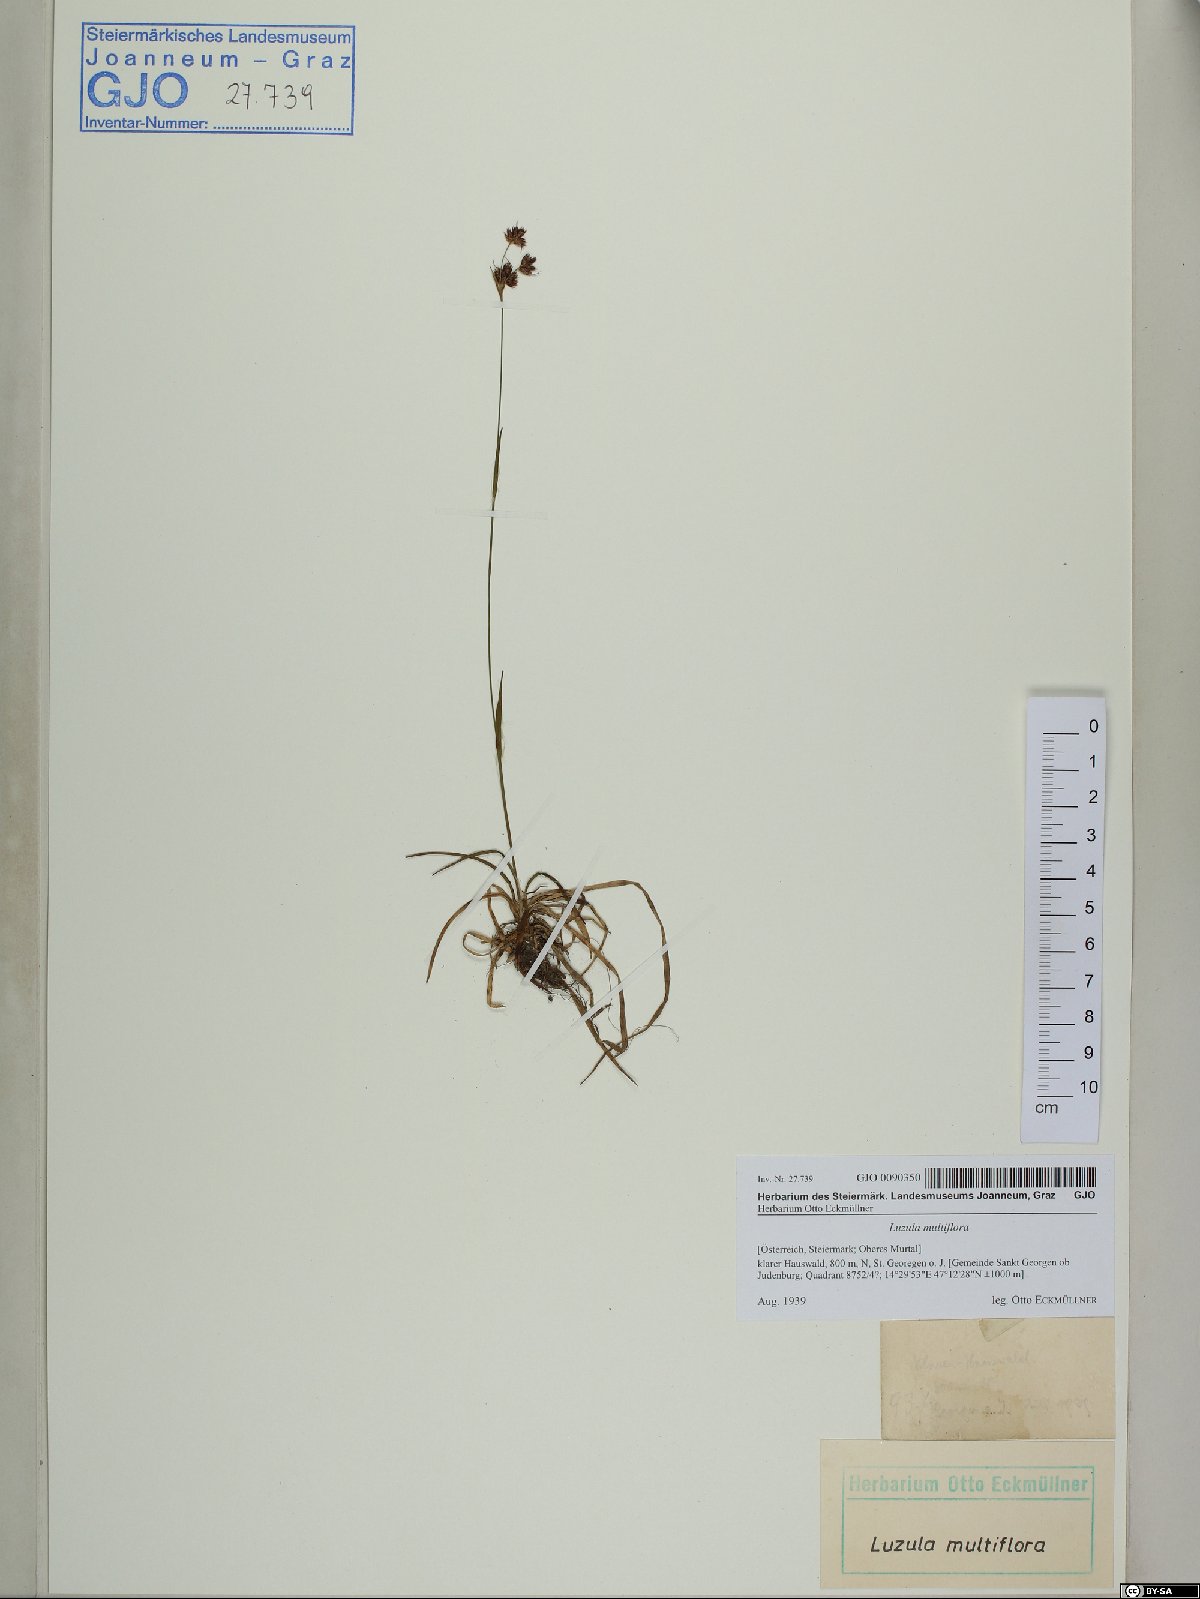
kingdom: Plantae
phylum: Tracheophyta
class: Liliopsida
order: Poales
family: Juncaceae
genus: Luzula
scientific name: Luzula multiflora
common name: Heath wood-rush
